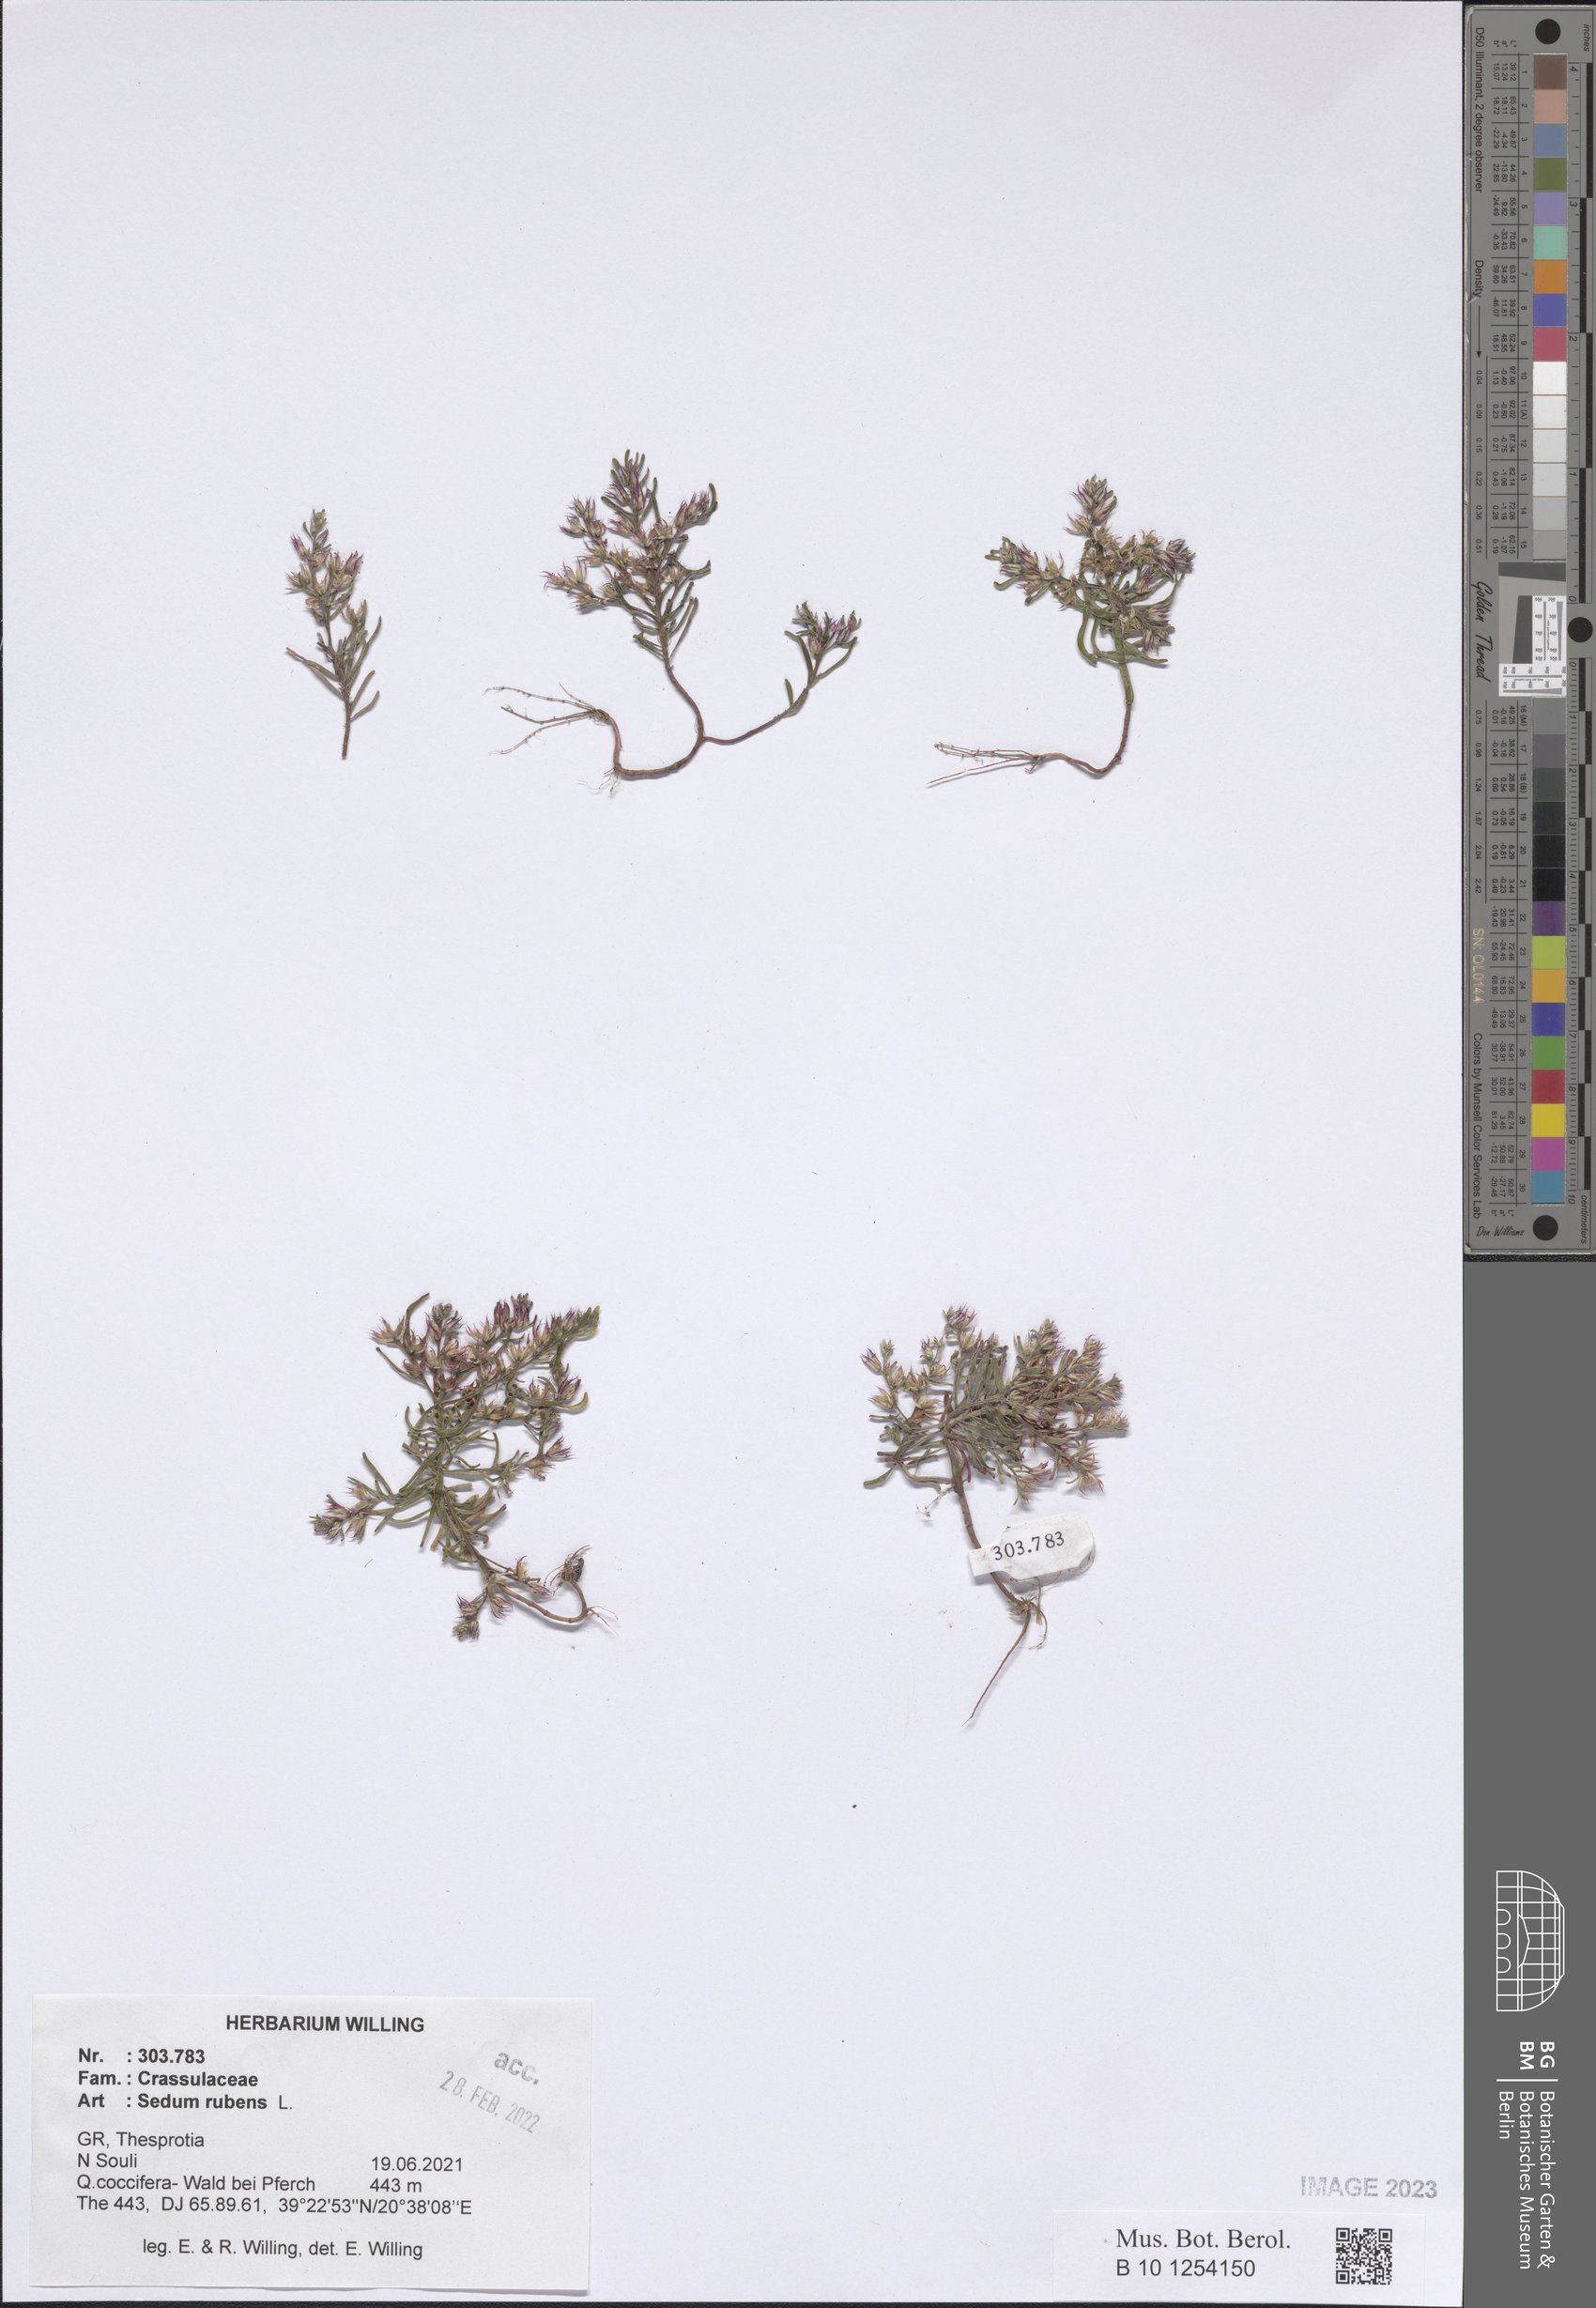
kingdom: Plantae
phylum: Tracheophyta
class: Magnoliopsida
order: Saxifragales
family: Crassulaceae
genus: Sedum
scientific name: Sedum rubens
